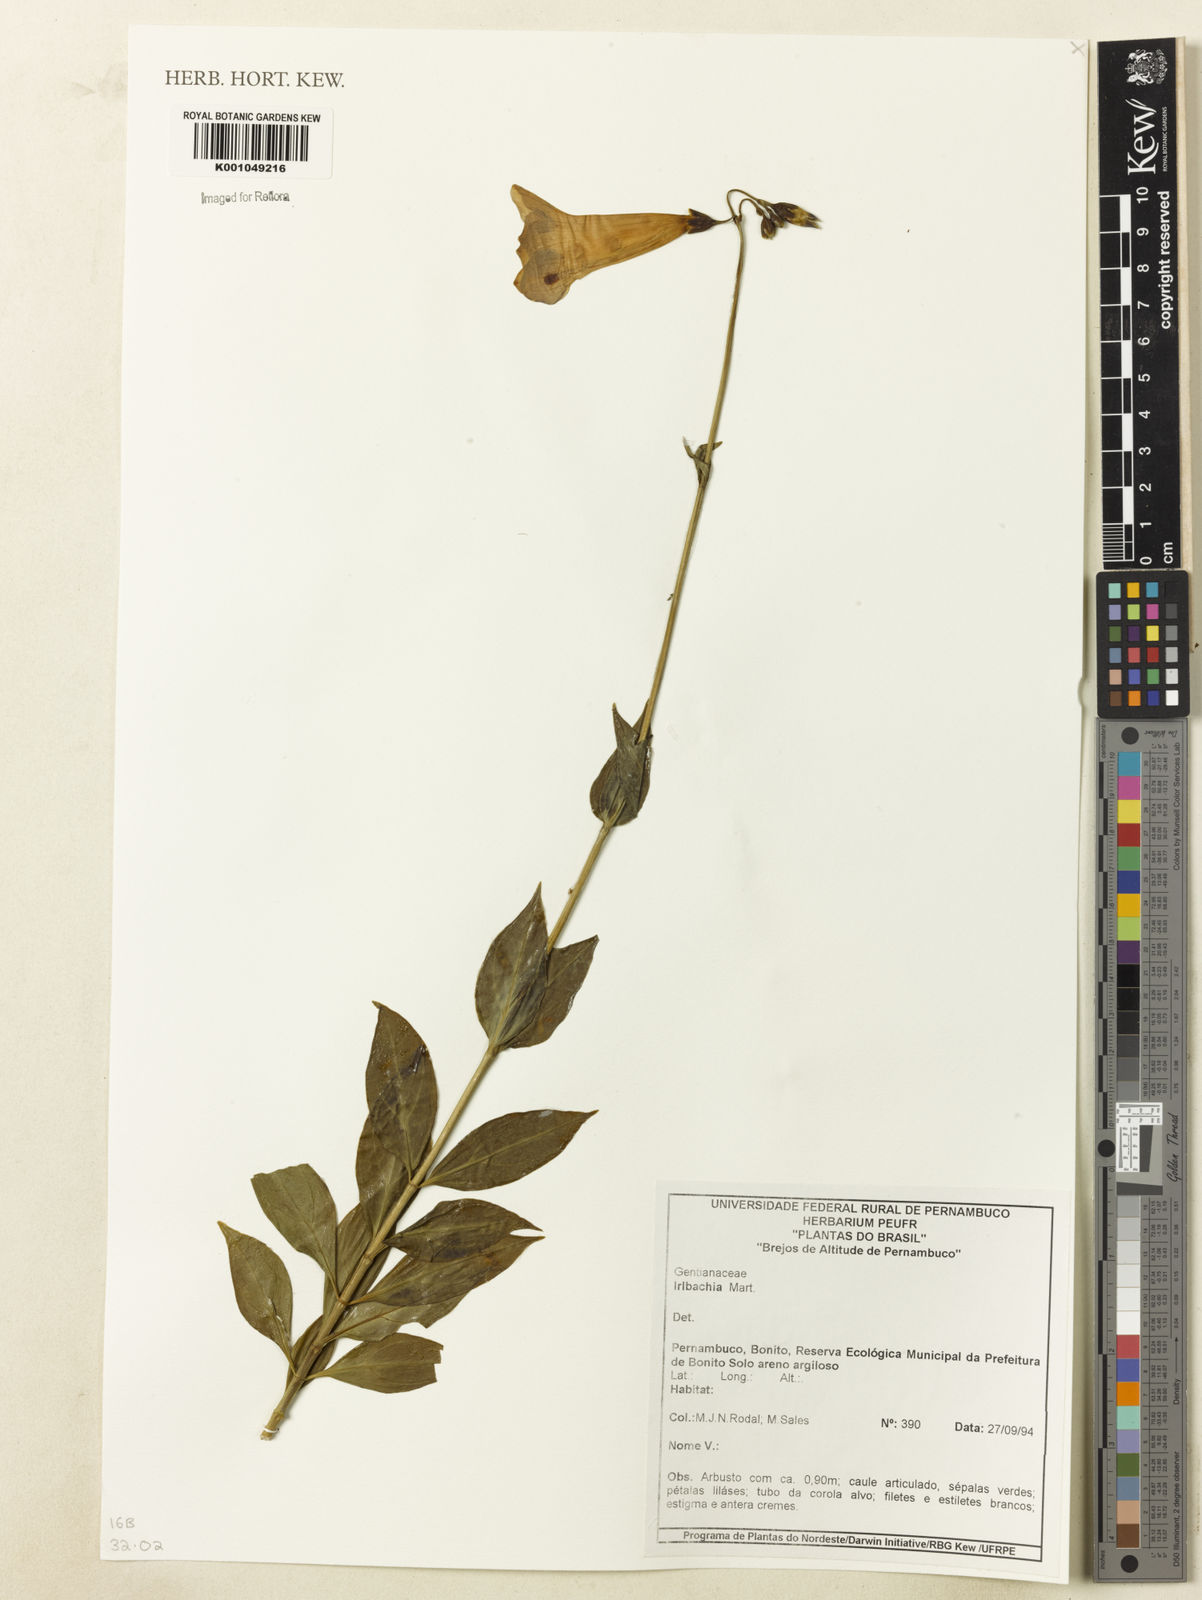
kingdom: Plantae
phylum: Tracheophyta
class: Magnoliopsida
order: Gentianales
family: Gentianaceae
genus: Irlbachia
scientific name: Irlbachia
